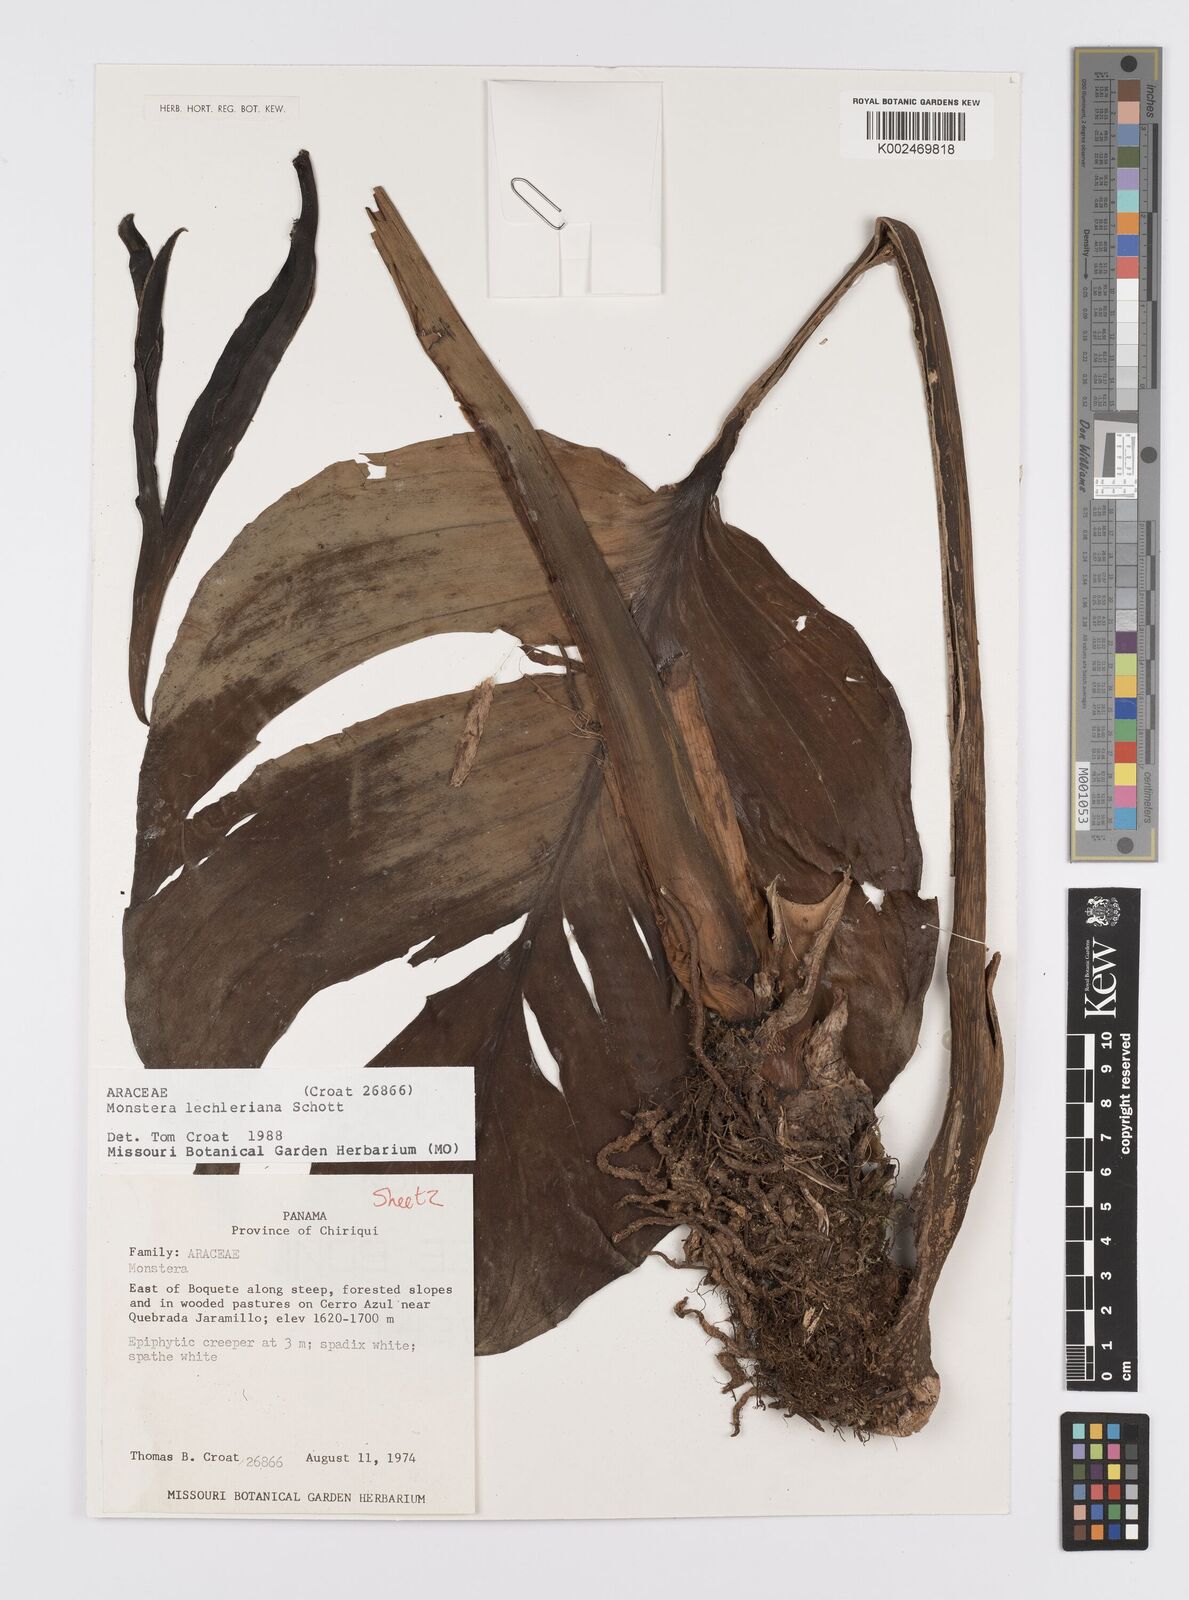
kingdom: Plantae
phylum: Tracheophyta
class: Liliopsida
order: Alismatales
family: Araceae
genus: Monstera
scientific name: Monstera lechleriana
